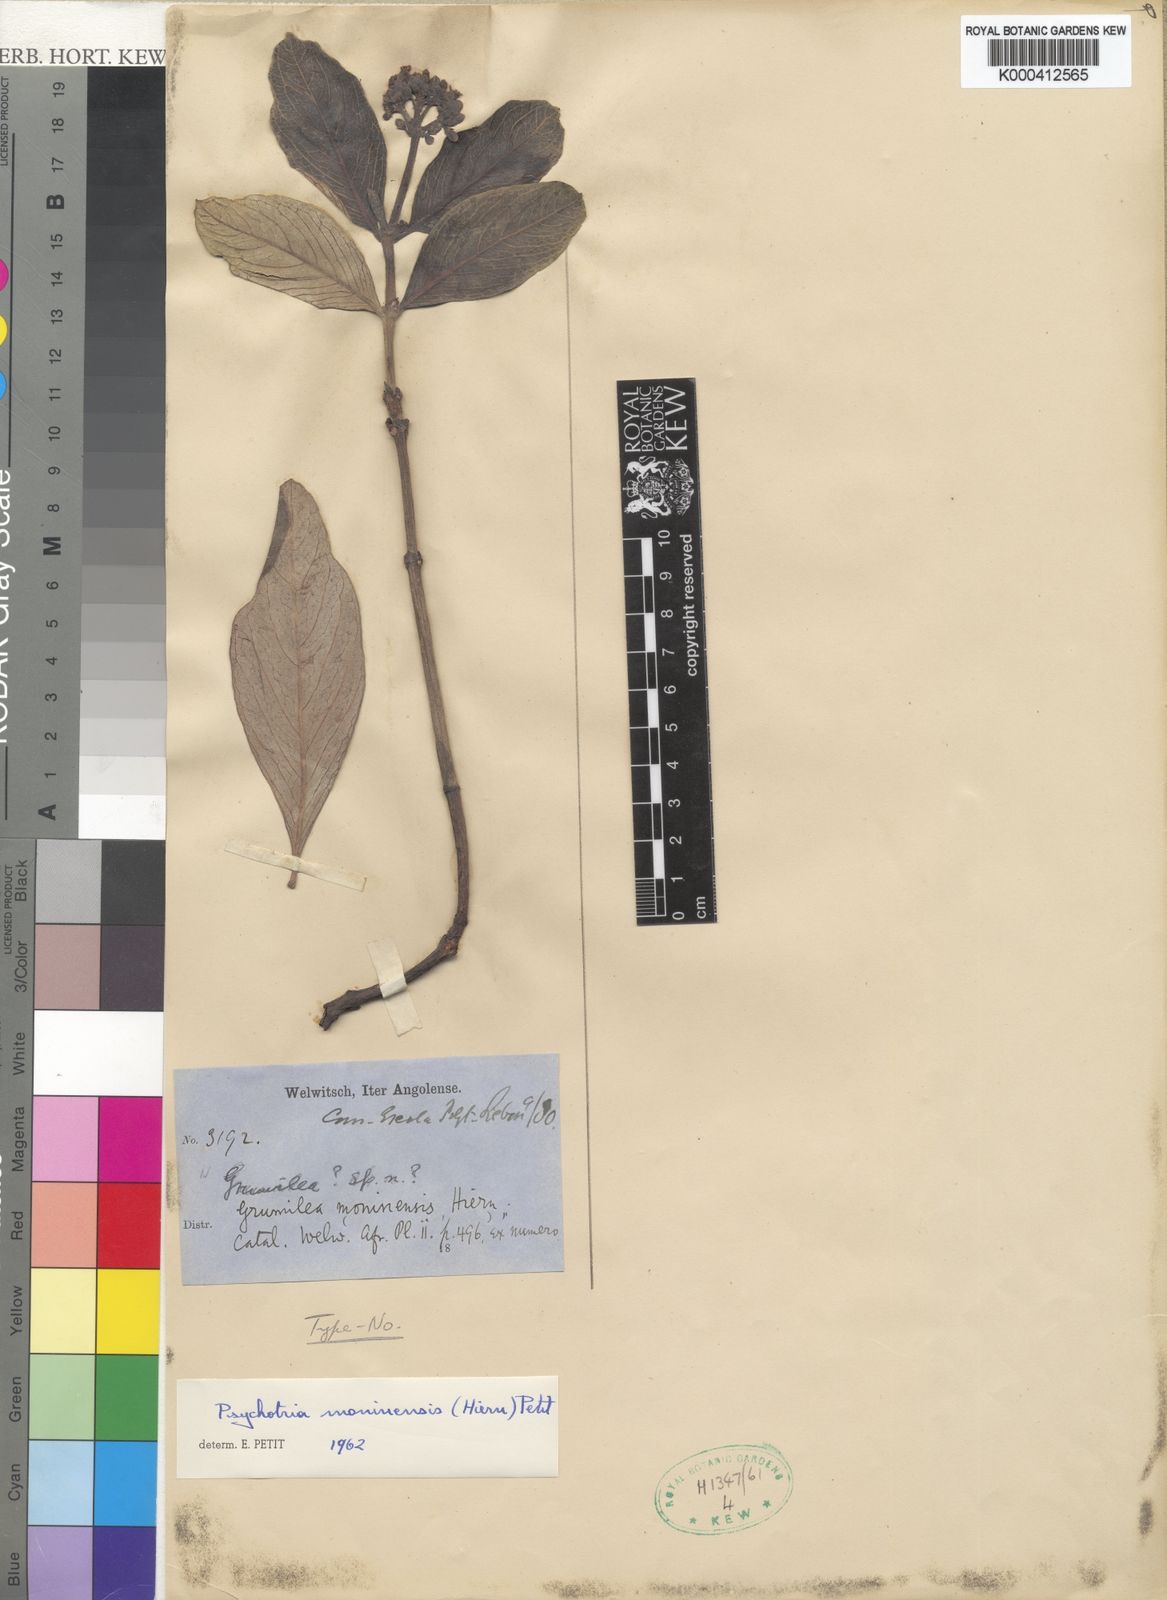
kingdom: Plantae
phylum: Tracheophyta
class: Magnoliopsida
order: Gentianales
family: Rubiaceae
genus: Psychotria
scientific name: Psychotria moninensis
